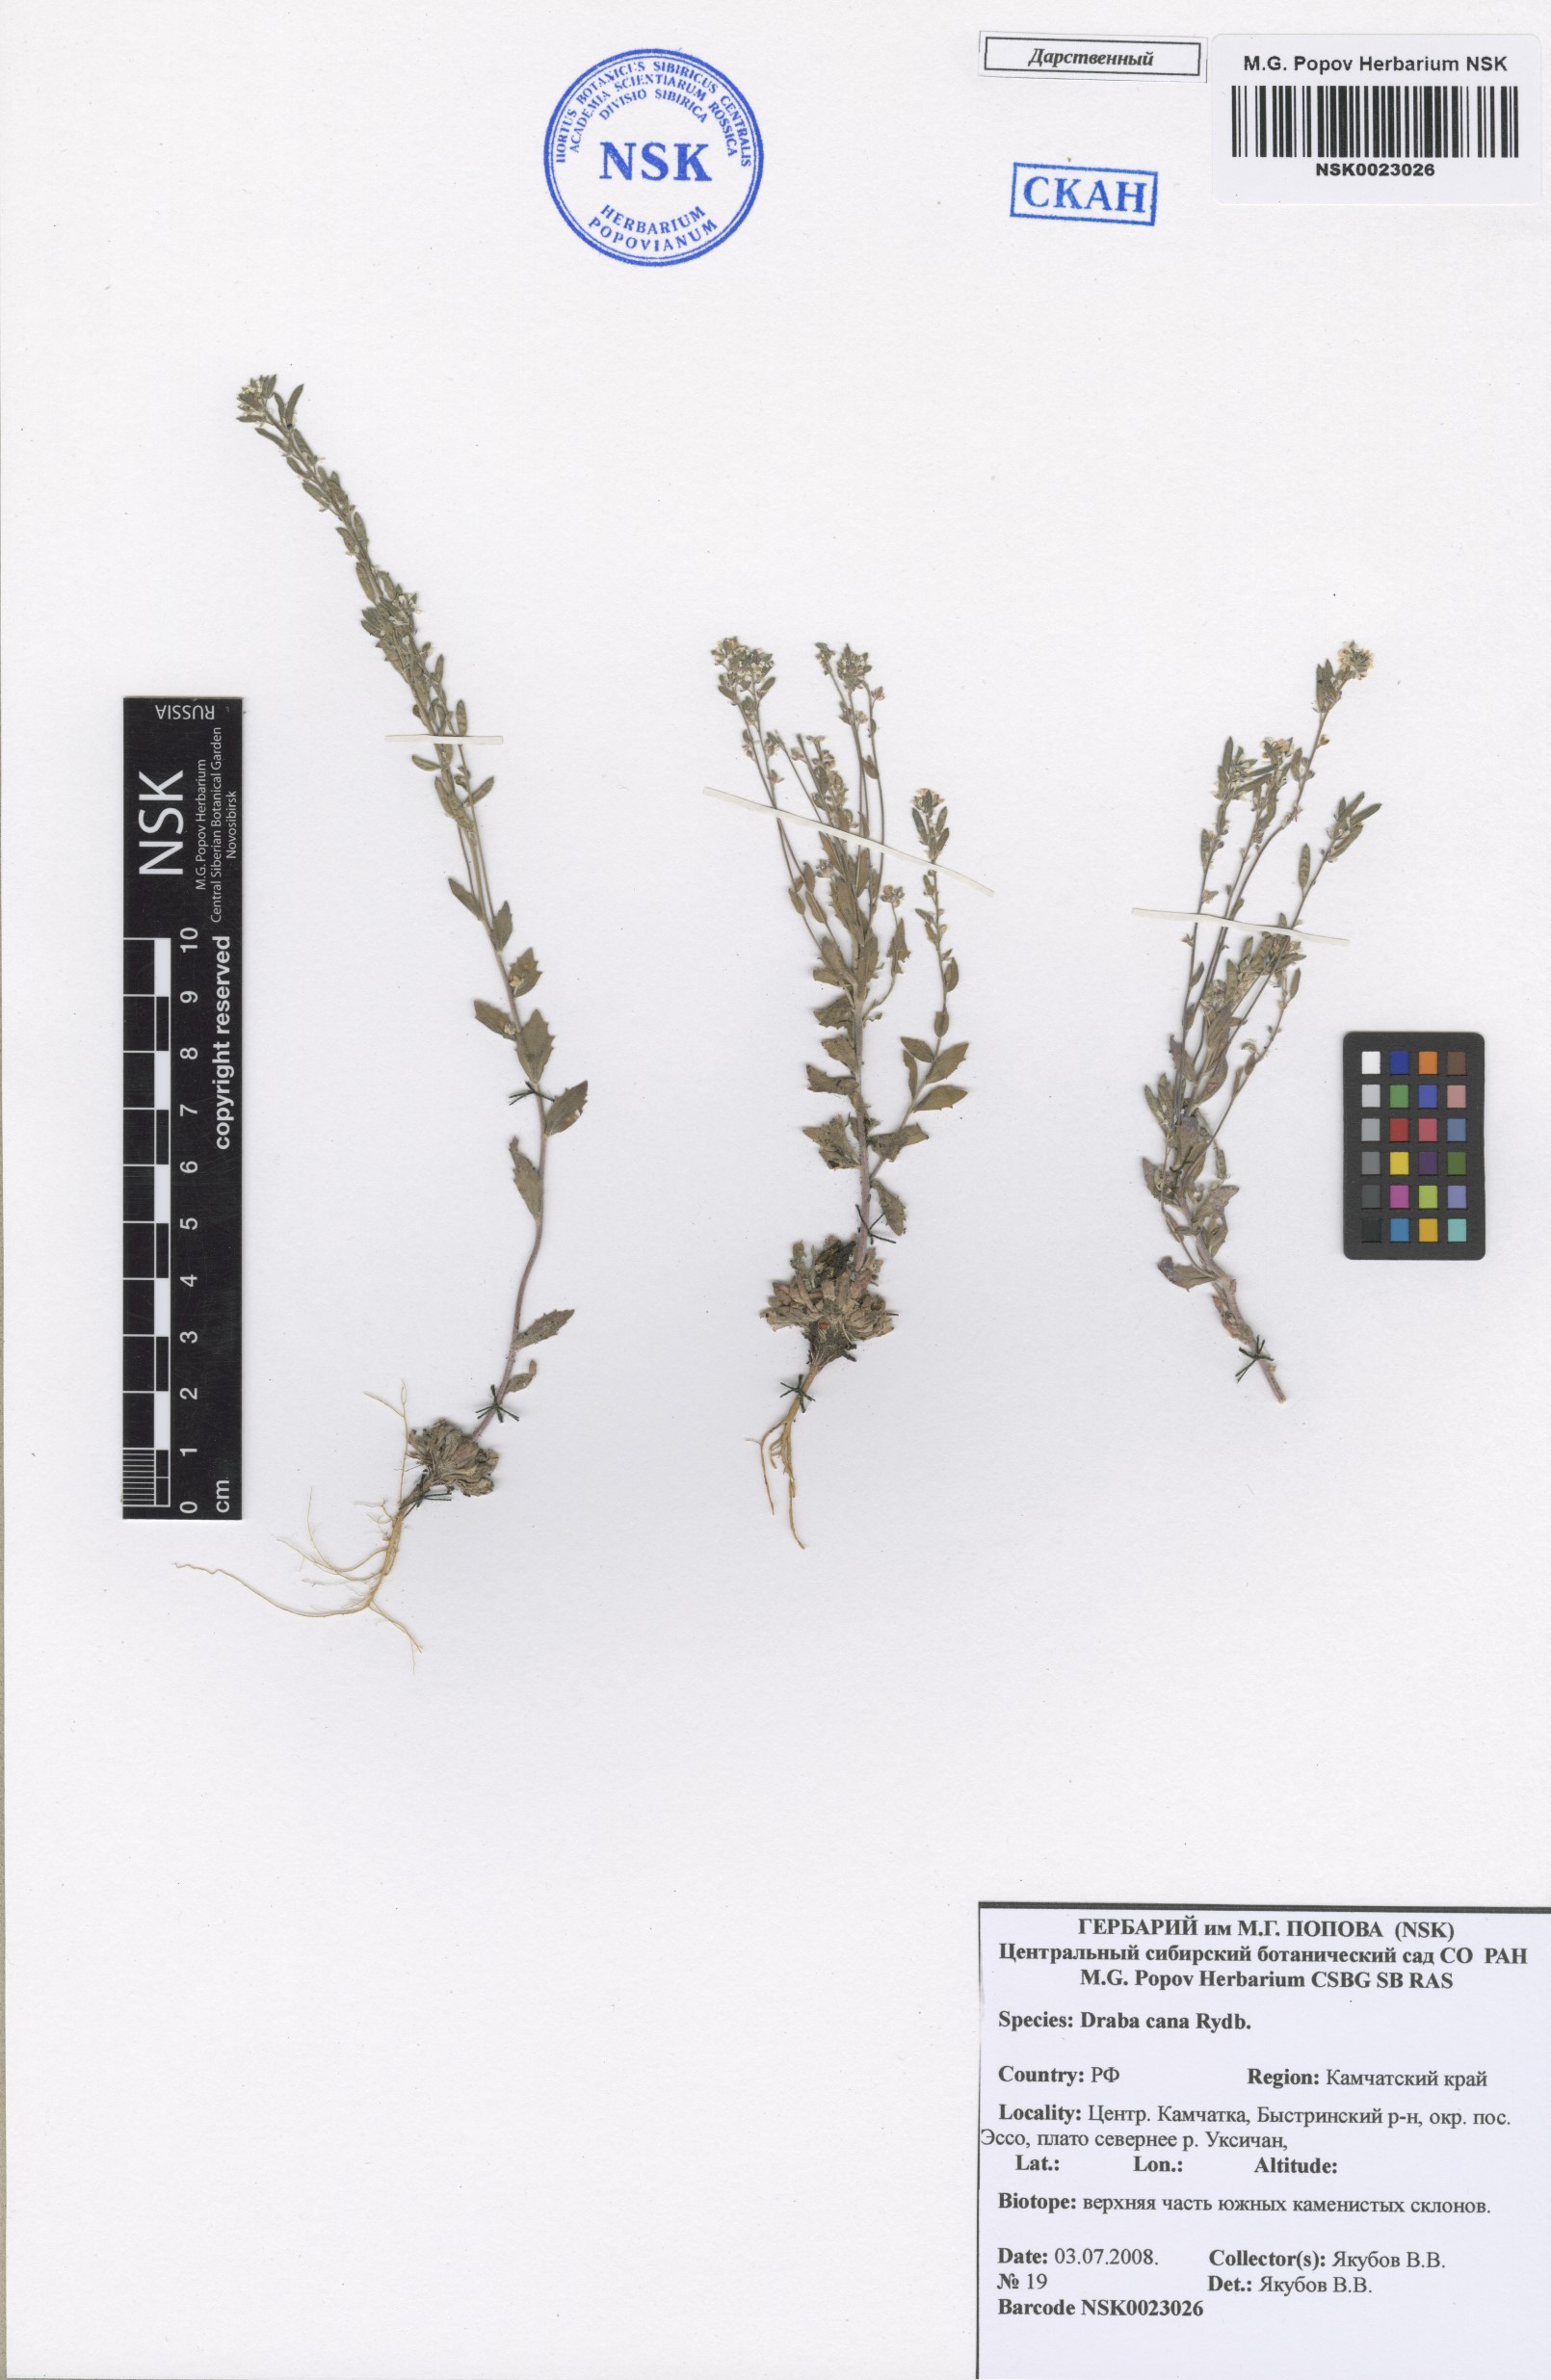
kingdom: Plantae
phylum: Tracheophyta
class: Magnoliopsida
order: Brassicales
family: Brassicaceae
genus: Draba
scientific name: Draba cana
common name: Hoary draba
